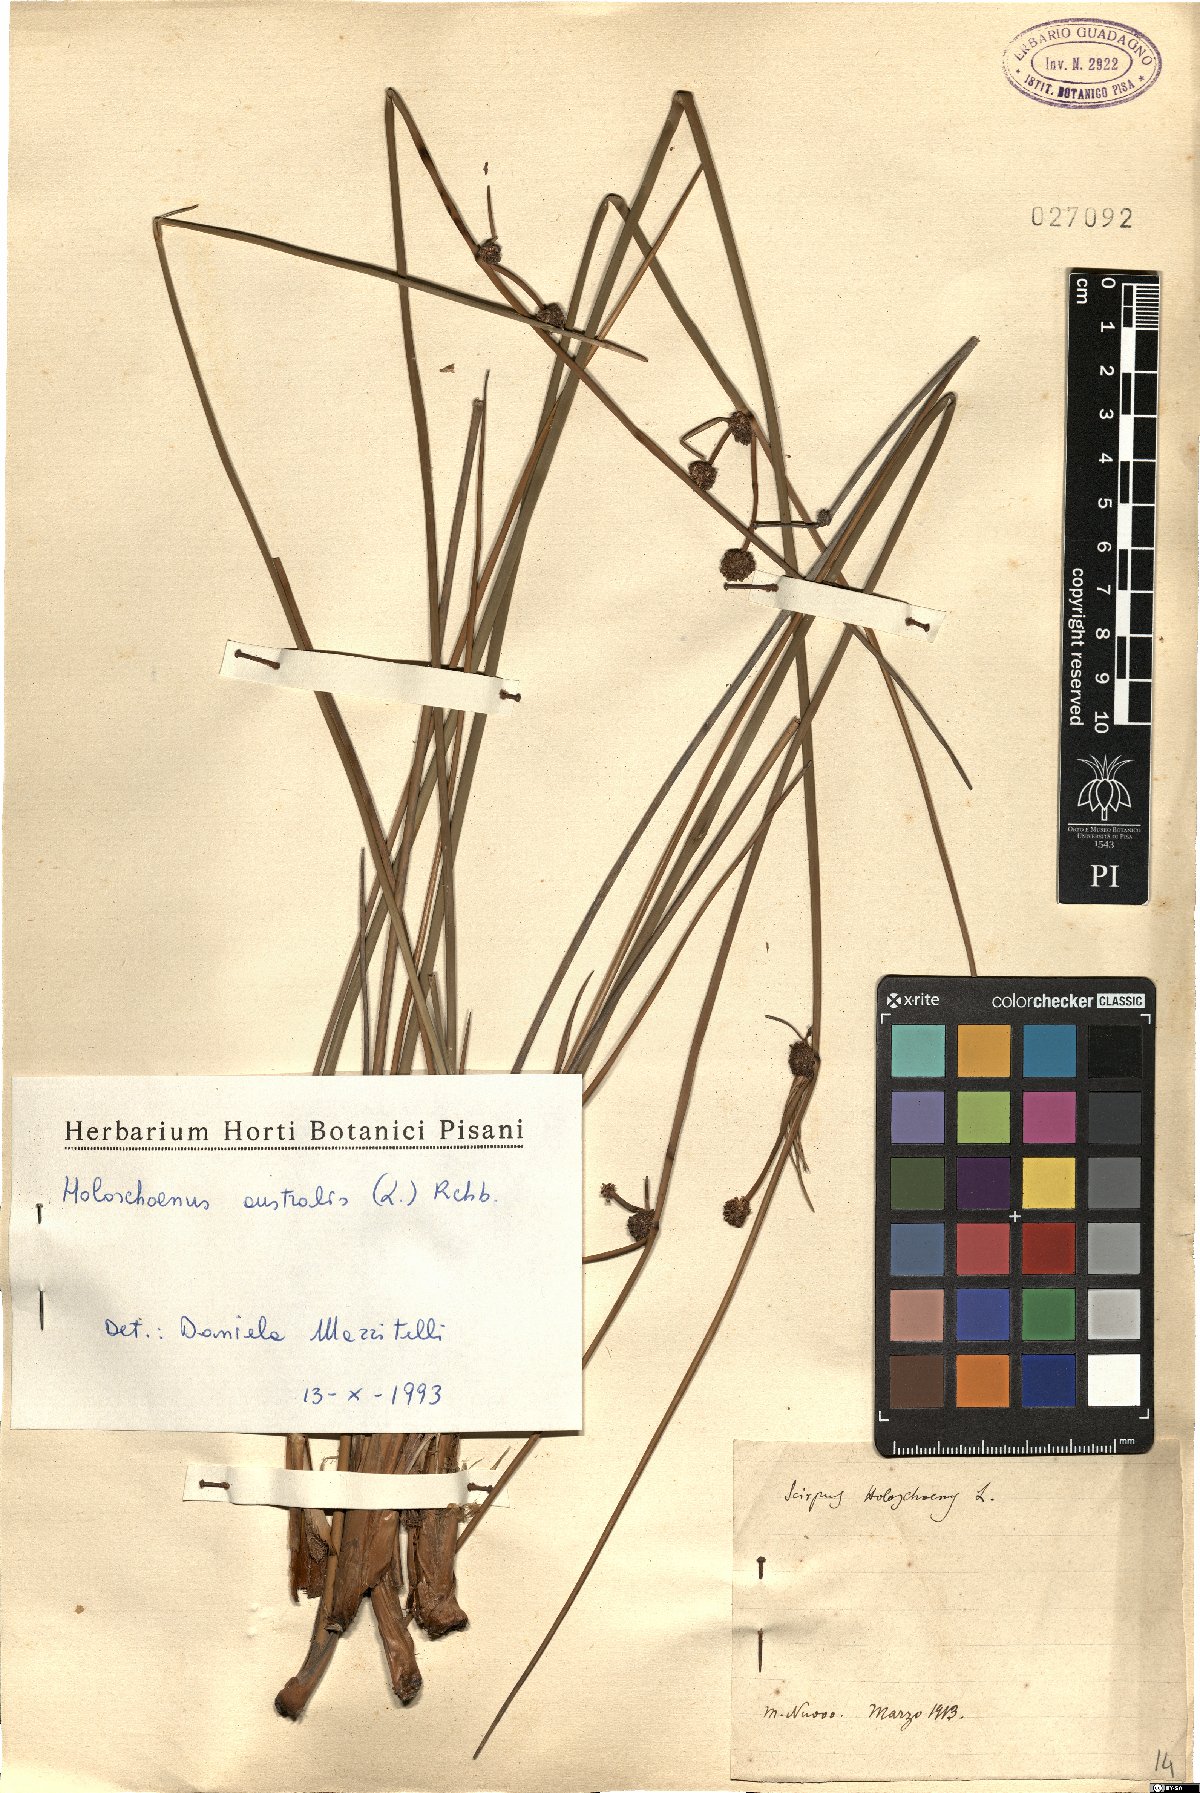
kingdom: Plantae
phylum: Tracheophyta
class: Liliopsida
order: Poales
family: Cyperaceae
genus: Scirpoides
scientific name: Scirpoides holoschoenus
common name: Round-headed club-rush
